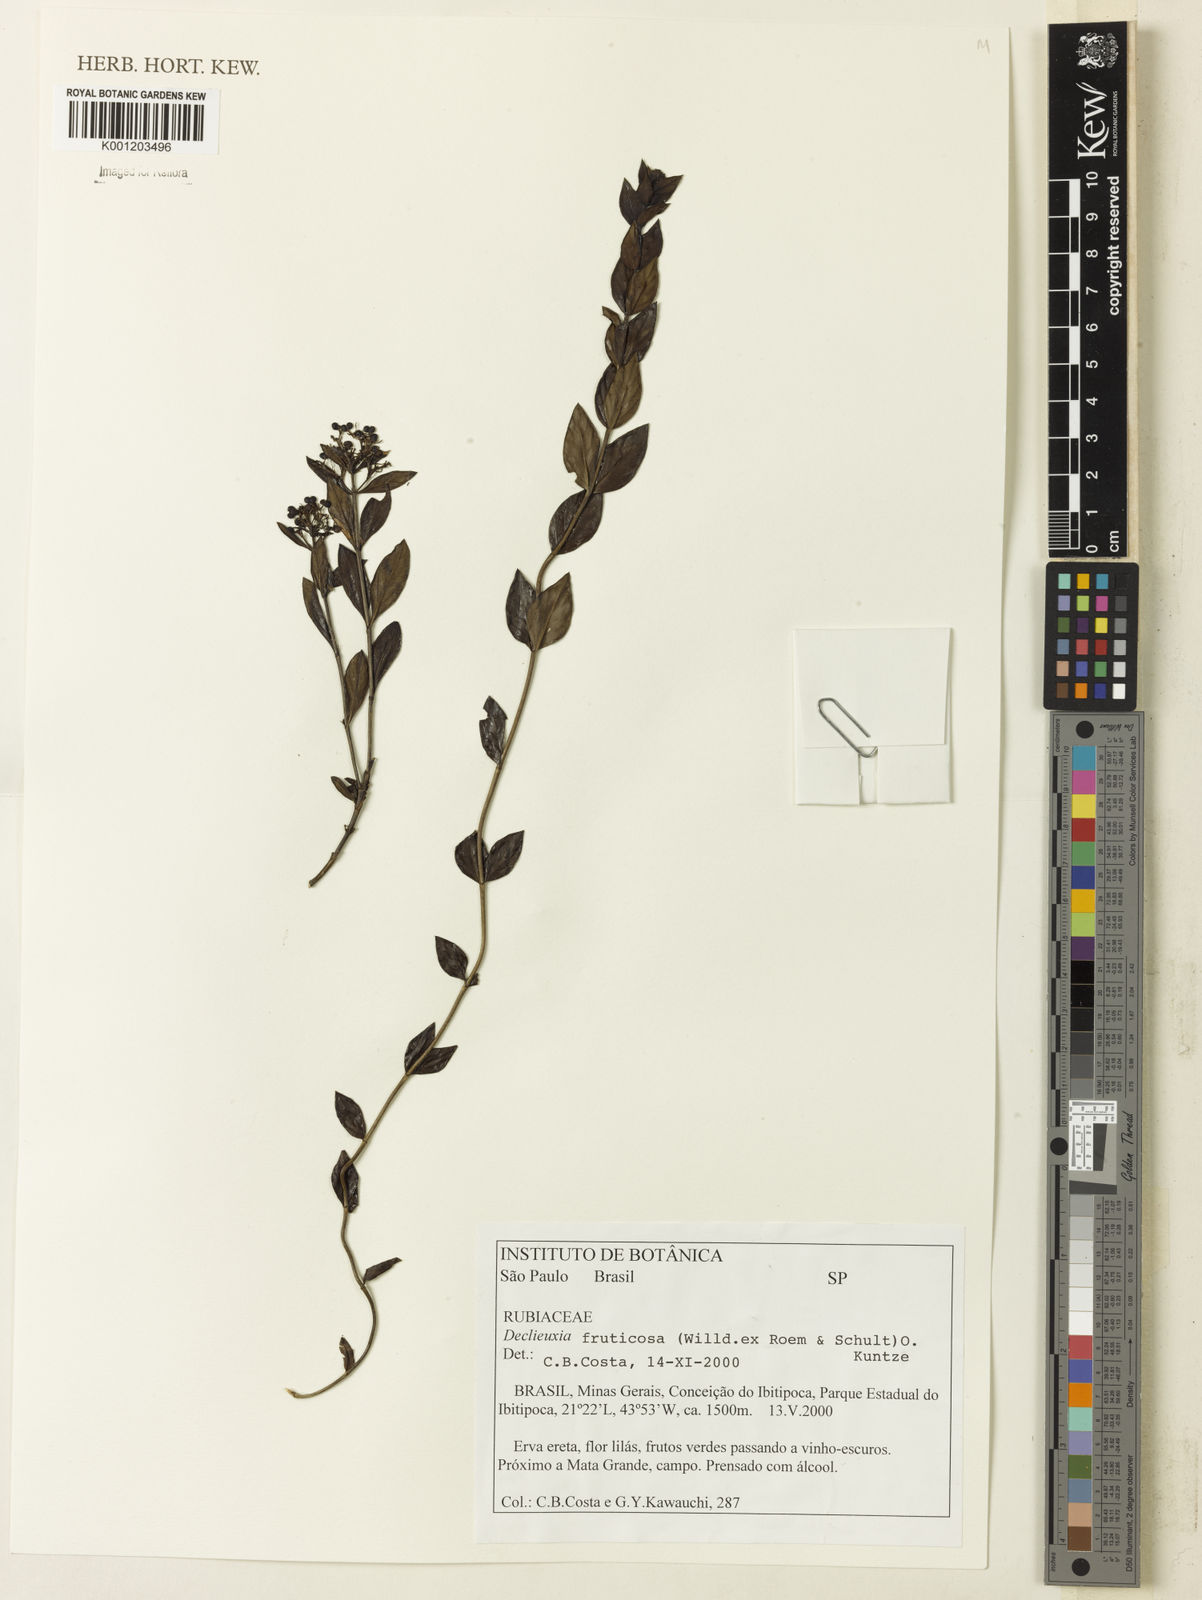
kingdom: Plantae
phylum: Tracheophyta
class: Magnoliopsida
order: Gentianales
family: Rubiaceae
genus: Declieuxia
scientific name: Declieuxia fruticosa
